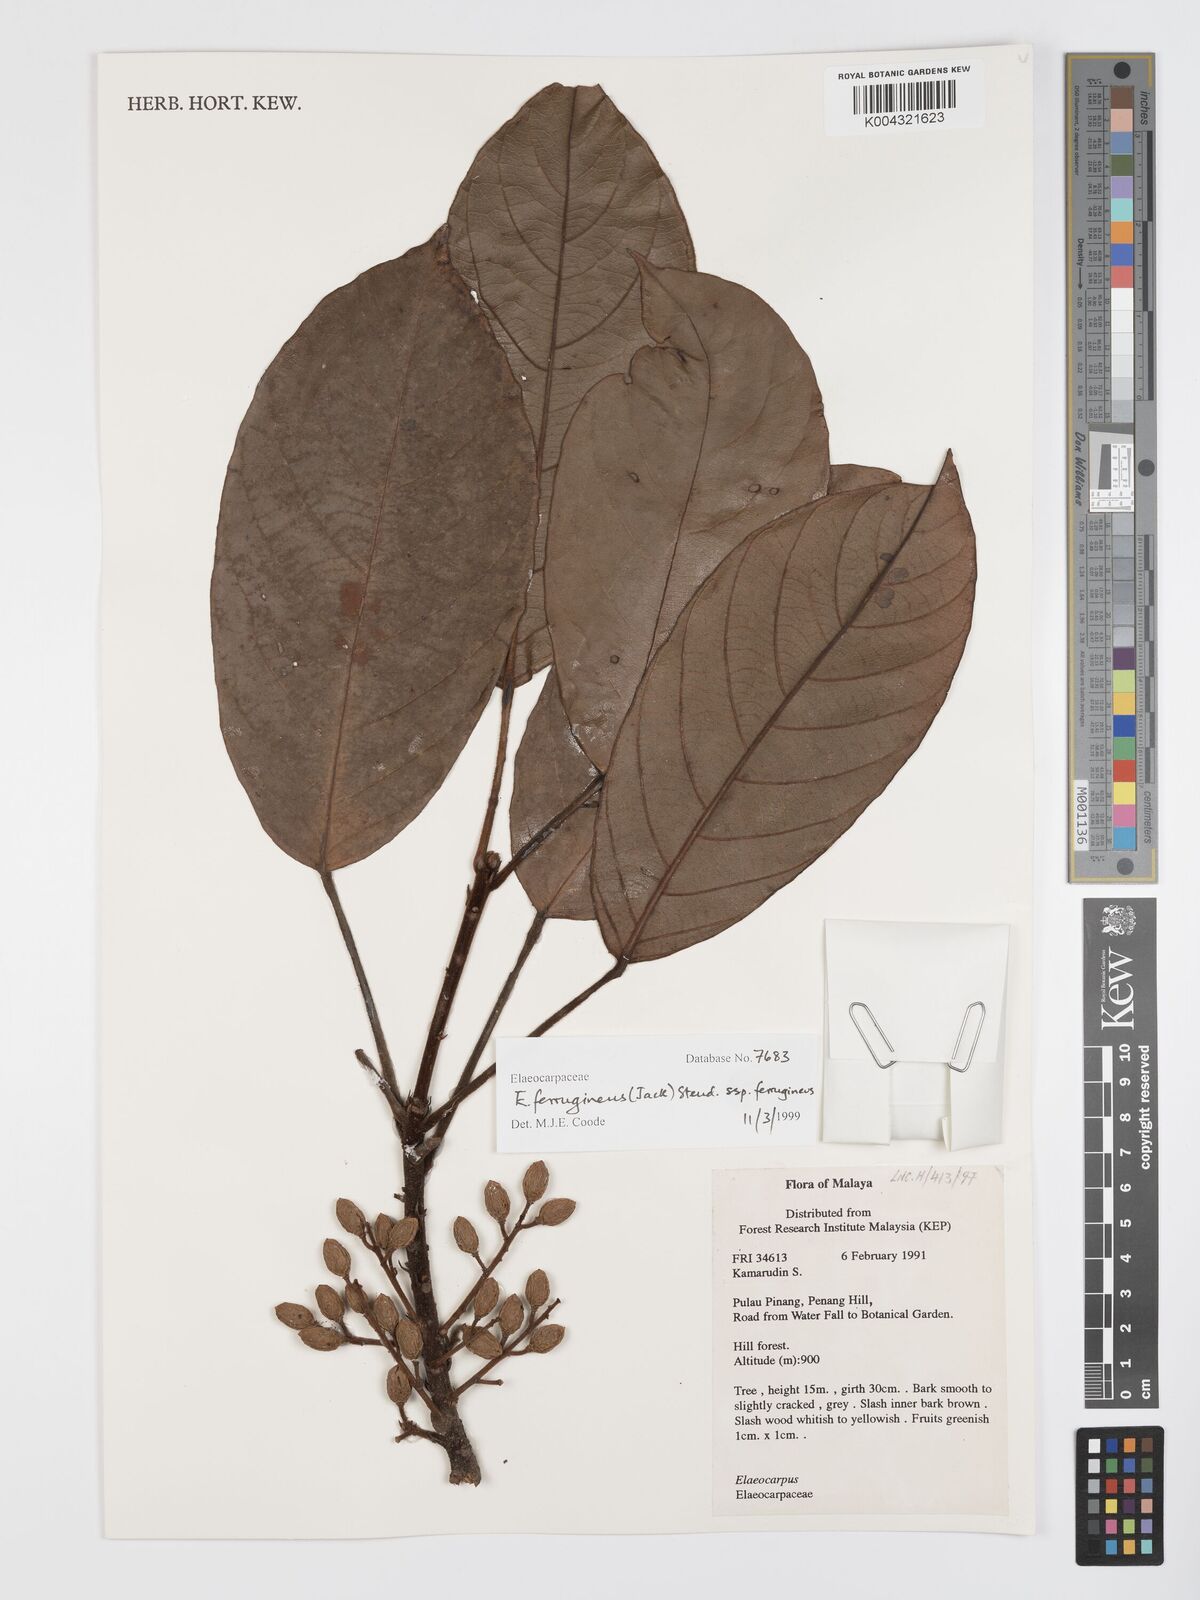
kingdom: Plantae
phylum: Tracheophyta
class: Magnoliopsida
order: Oxalidales
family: Elaeocarpaceae
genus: Elaeocarpus
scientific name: Elaeocarpus ferrugineus
